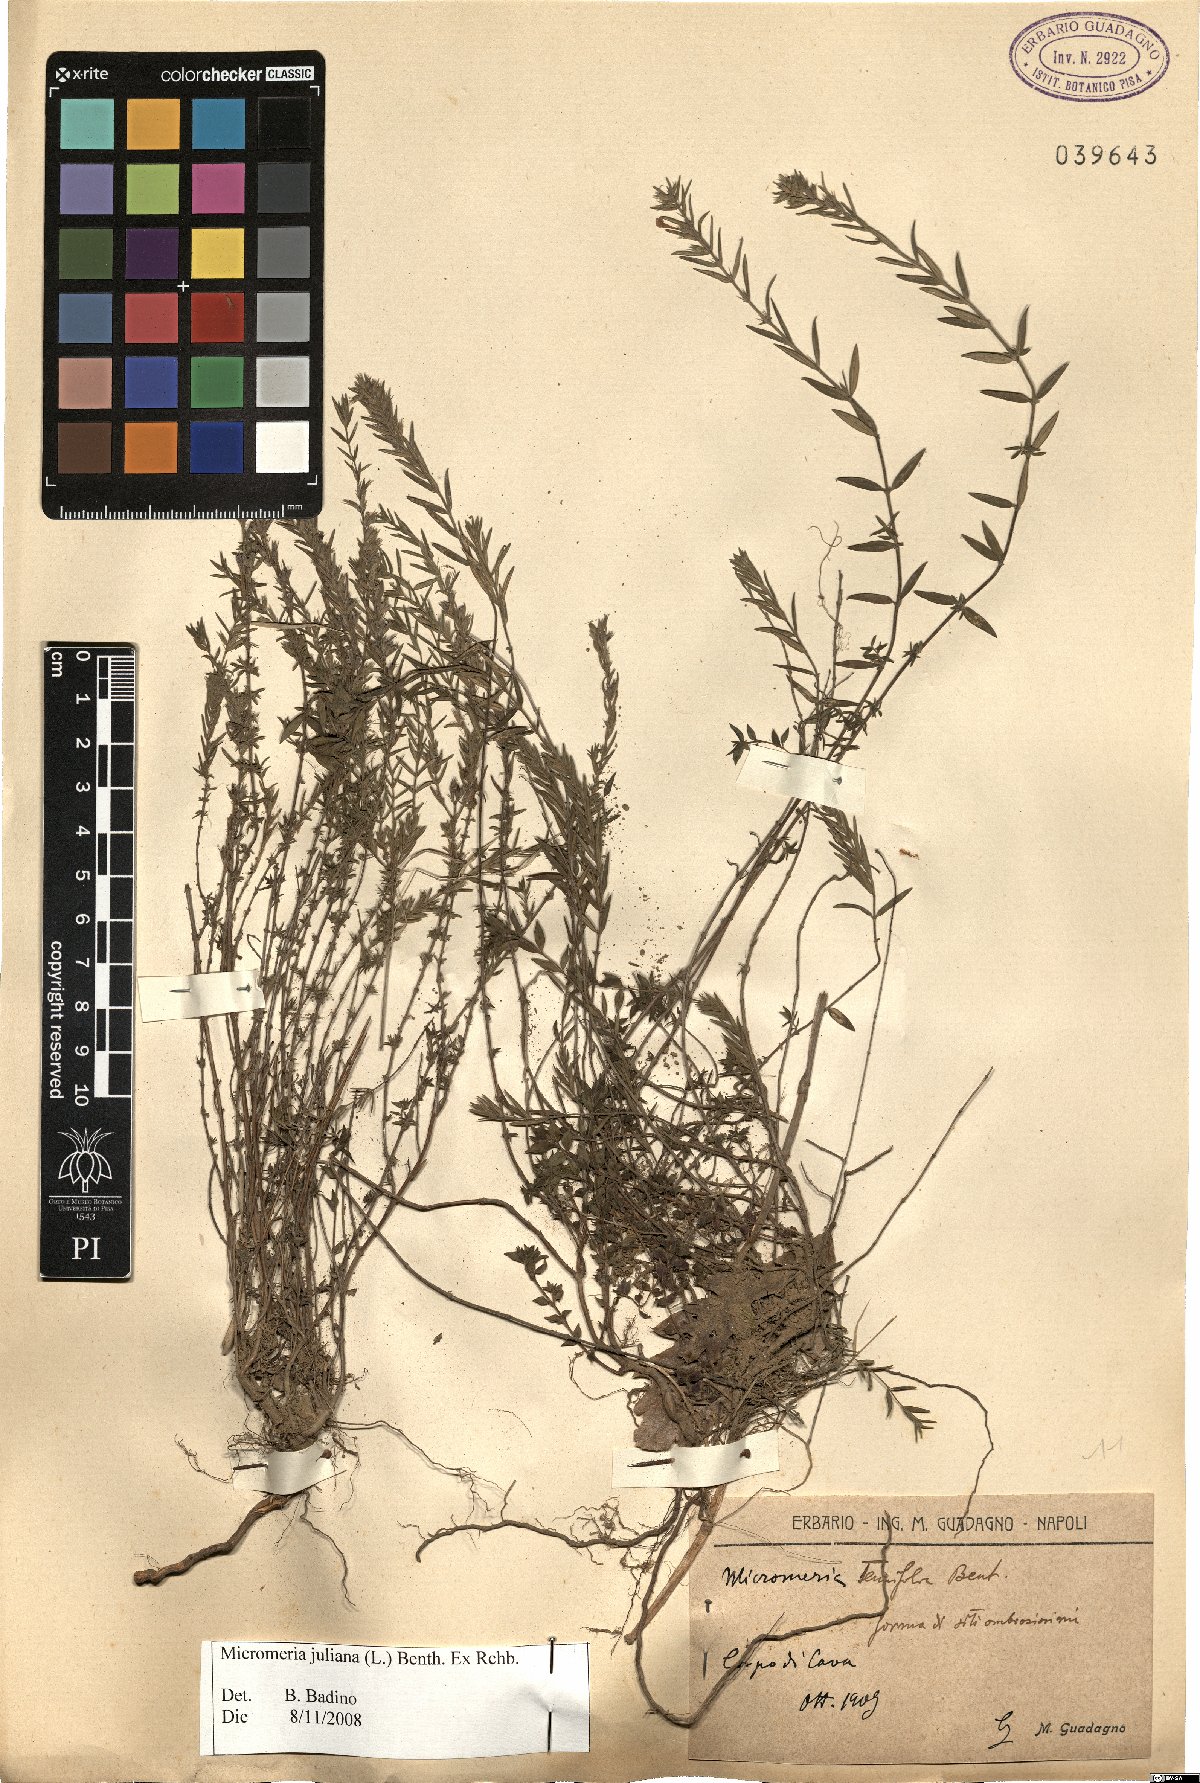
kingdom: Plantae
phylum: Tracheophyta
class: Magnoliopsida
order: Lamiales
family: Lamiaceae
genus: Micromeria
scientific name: Micromeria juliana
